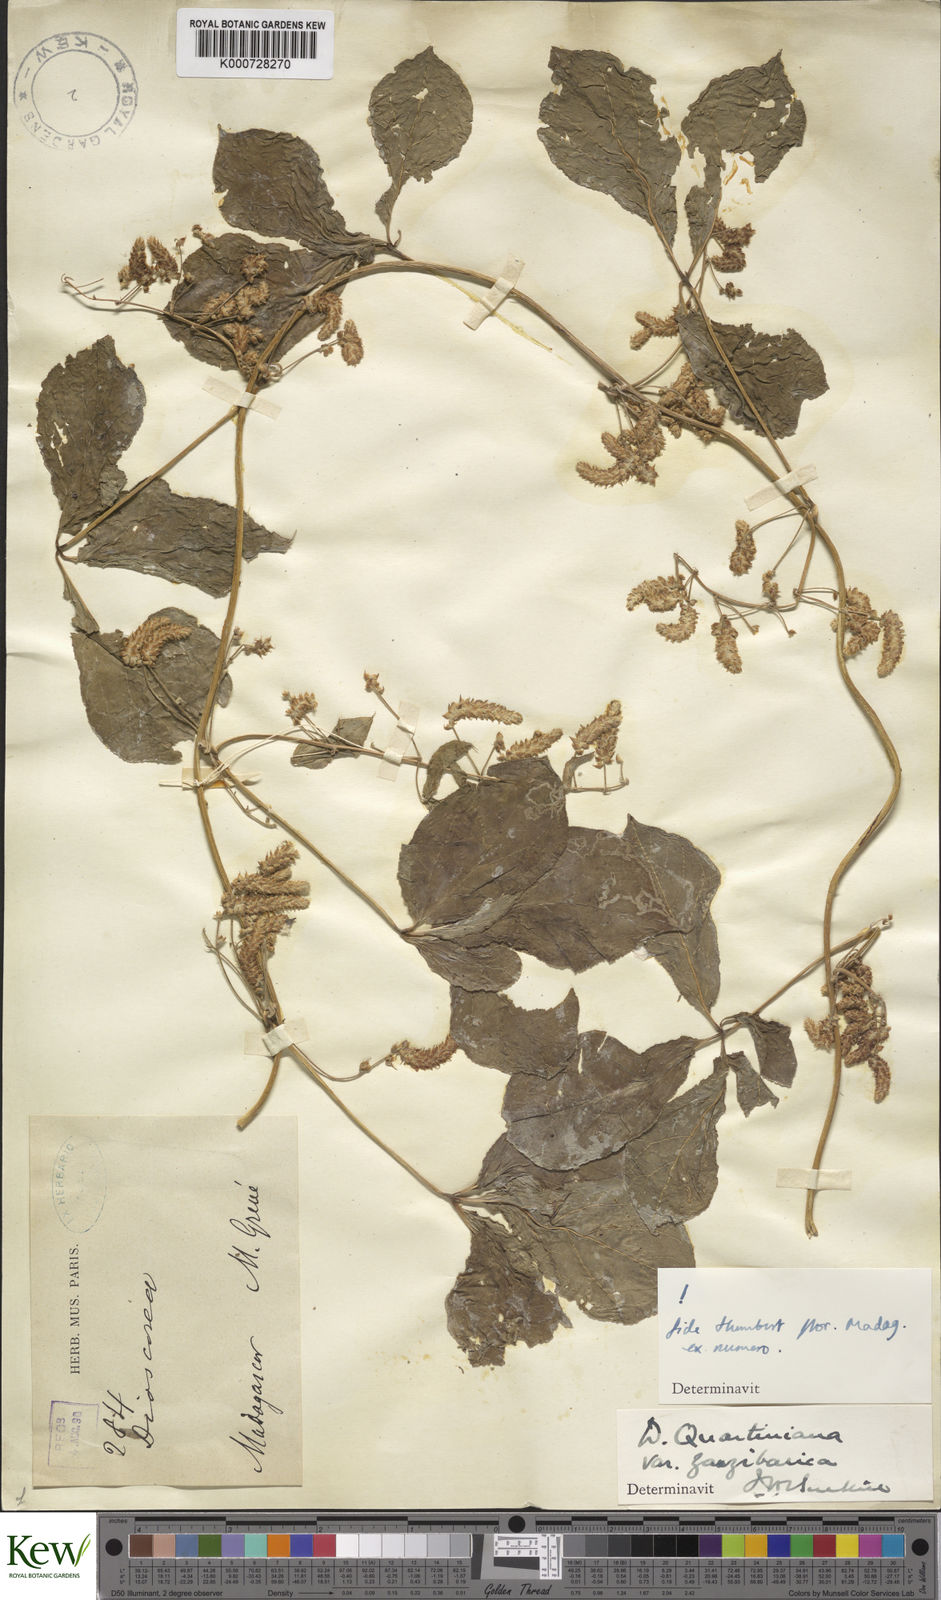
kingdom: Plantae
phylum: Tracheophyta
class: Liliopsida
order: Dioscoreales
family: Dioscoreaceae
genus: Dioscorea
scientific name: Dioscorea quartiniana
